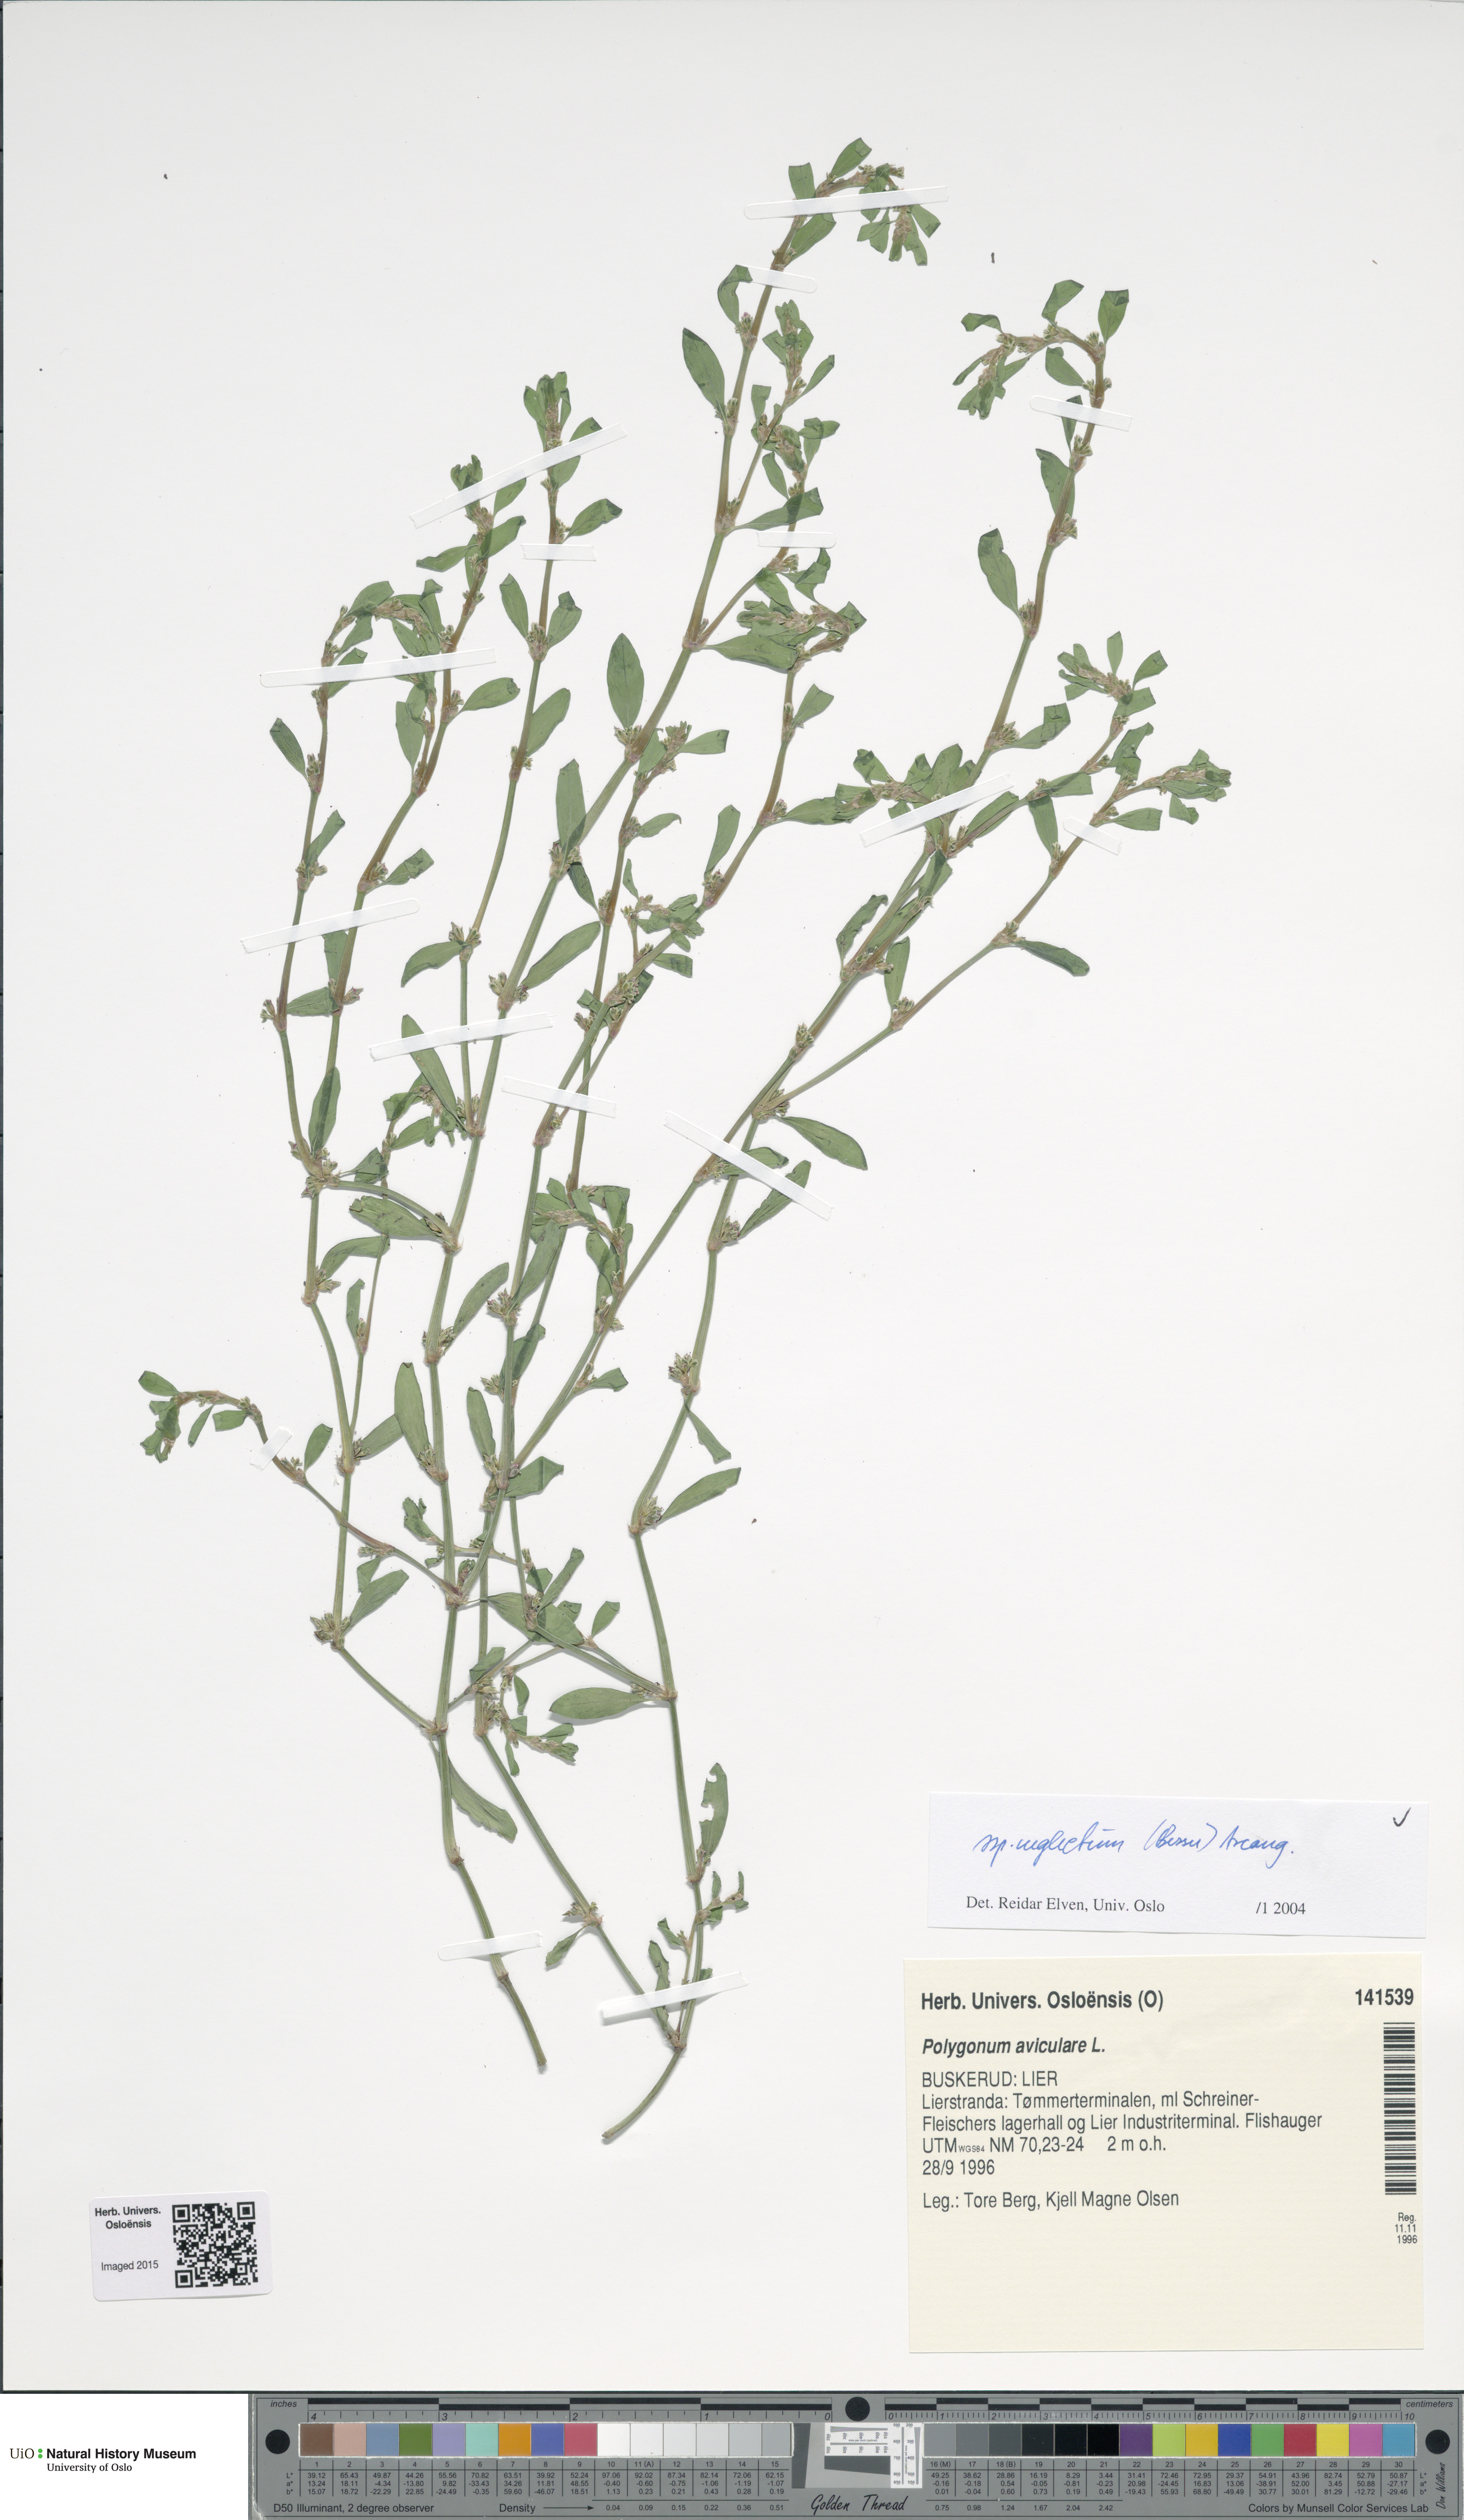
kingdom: Plantae
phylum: Tracheophyta
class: Magnoliopsida
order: Caryophyllales
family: Polygonaceae
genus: Polygonum
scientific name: Polygonum aviculare
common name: Prostrate knotweed
